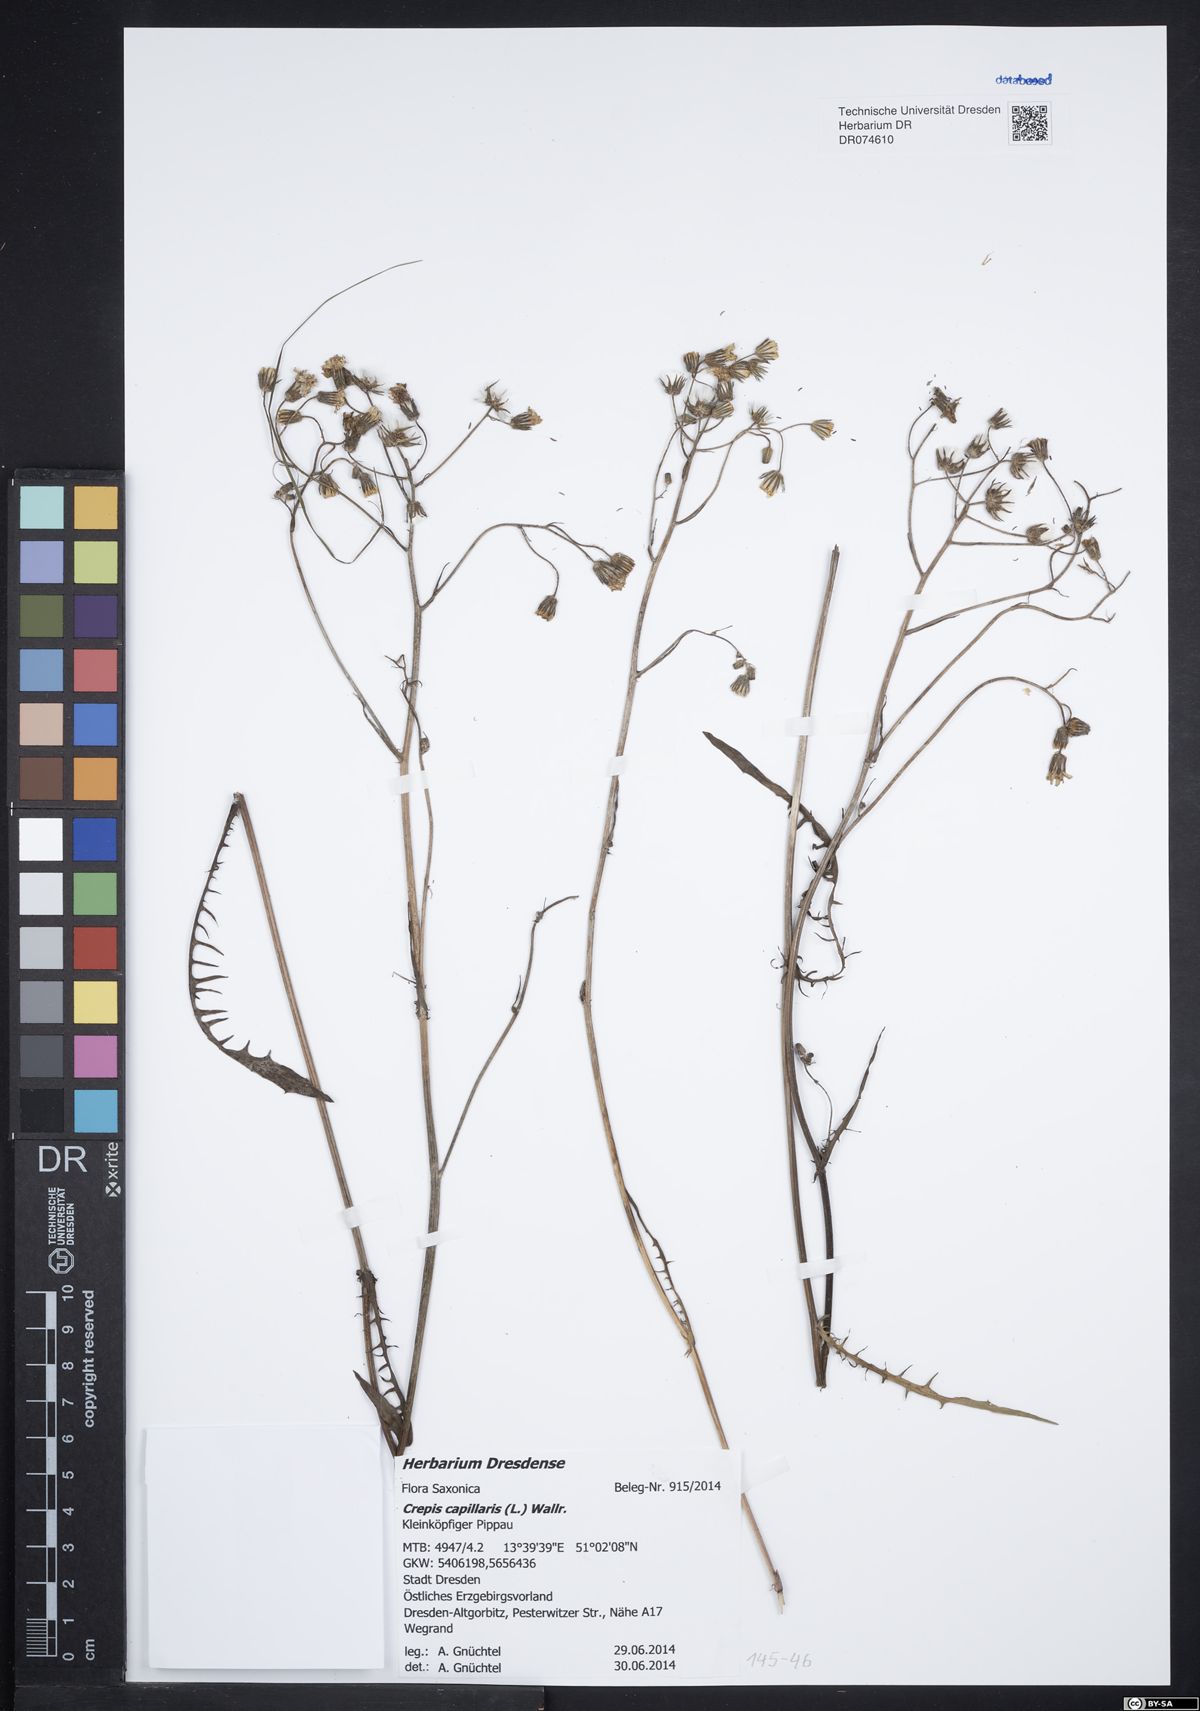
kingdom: Plantae
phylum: Tracheophyta
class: Magnoliopsida
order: Asterales
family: Asteraceae
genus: Crepis
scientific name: Crepis capillaris
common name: Smooth hawksbeard
